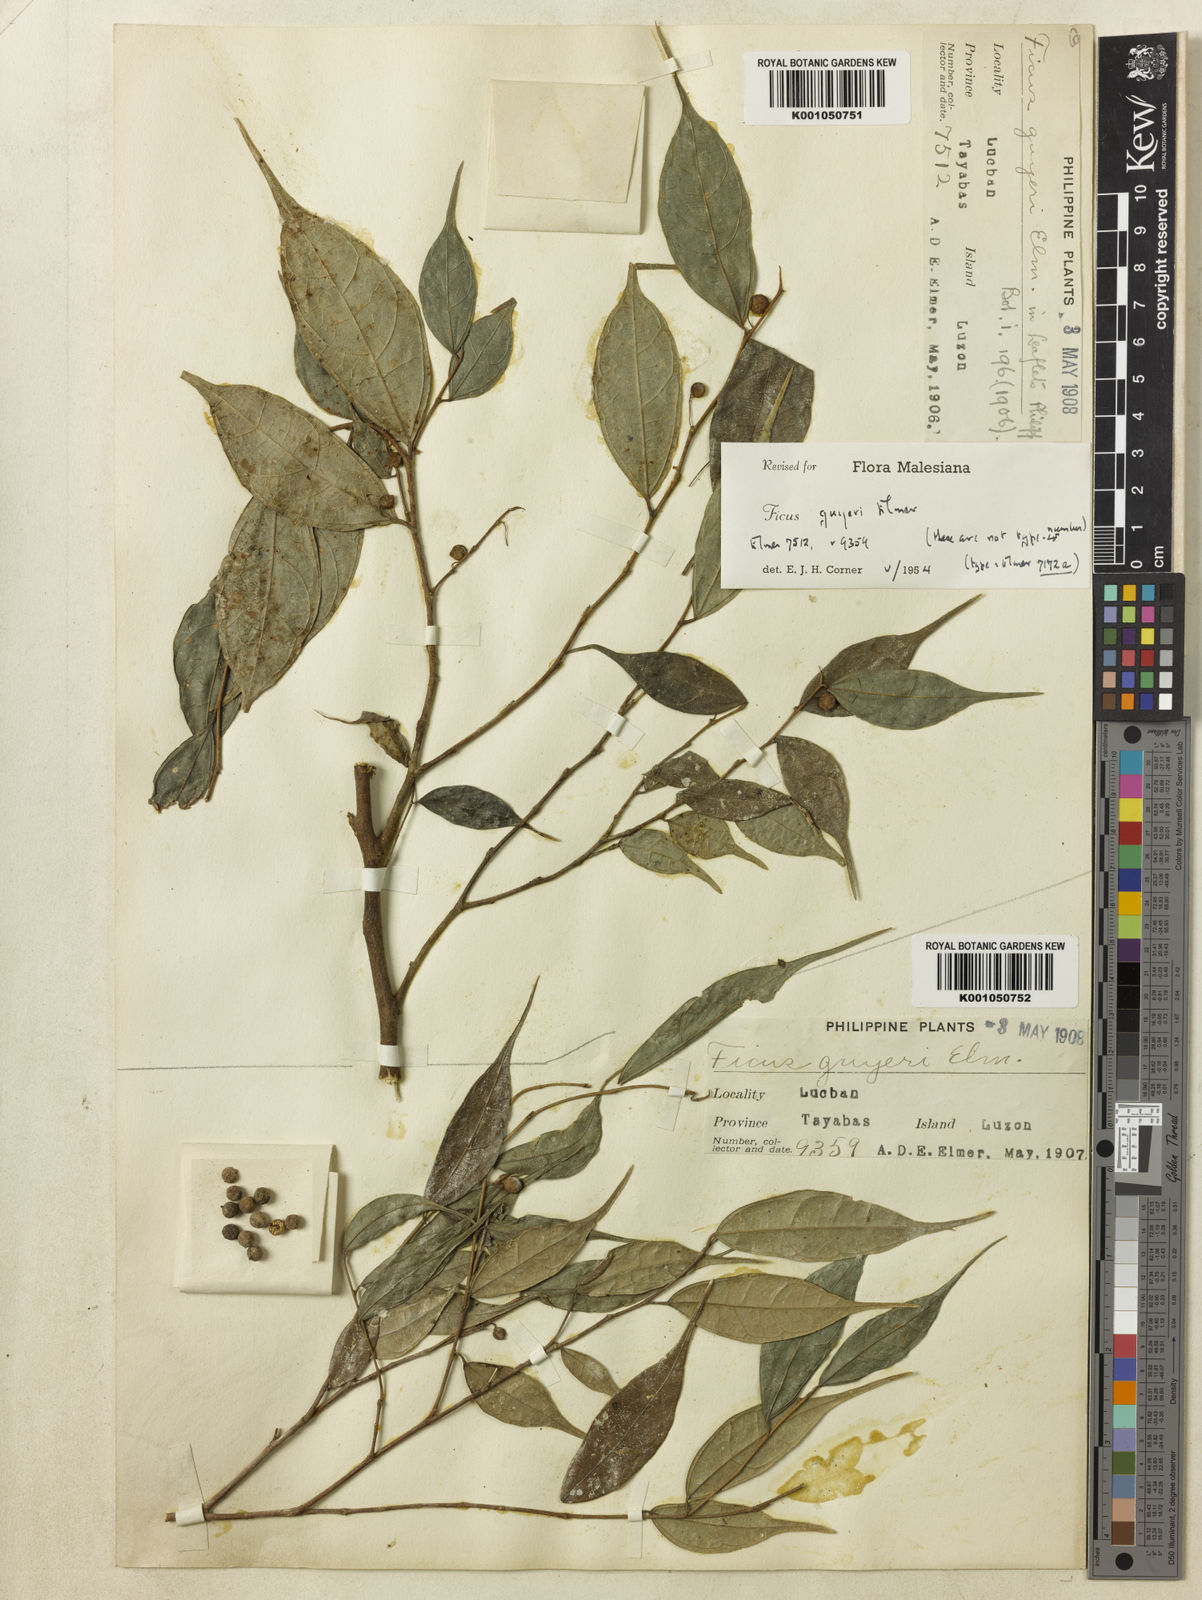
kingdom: Plantae
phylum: Tracheophyta
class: Magnoliopsida
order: Rosales
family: Moraceae
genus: Ficus
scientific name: Ficus ampelos
